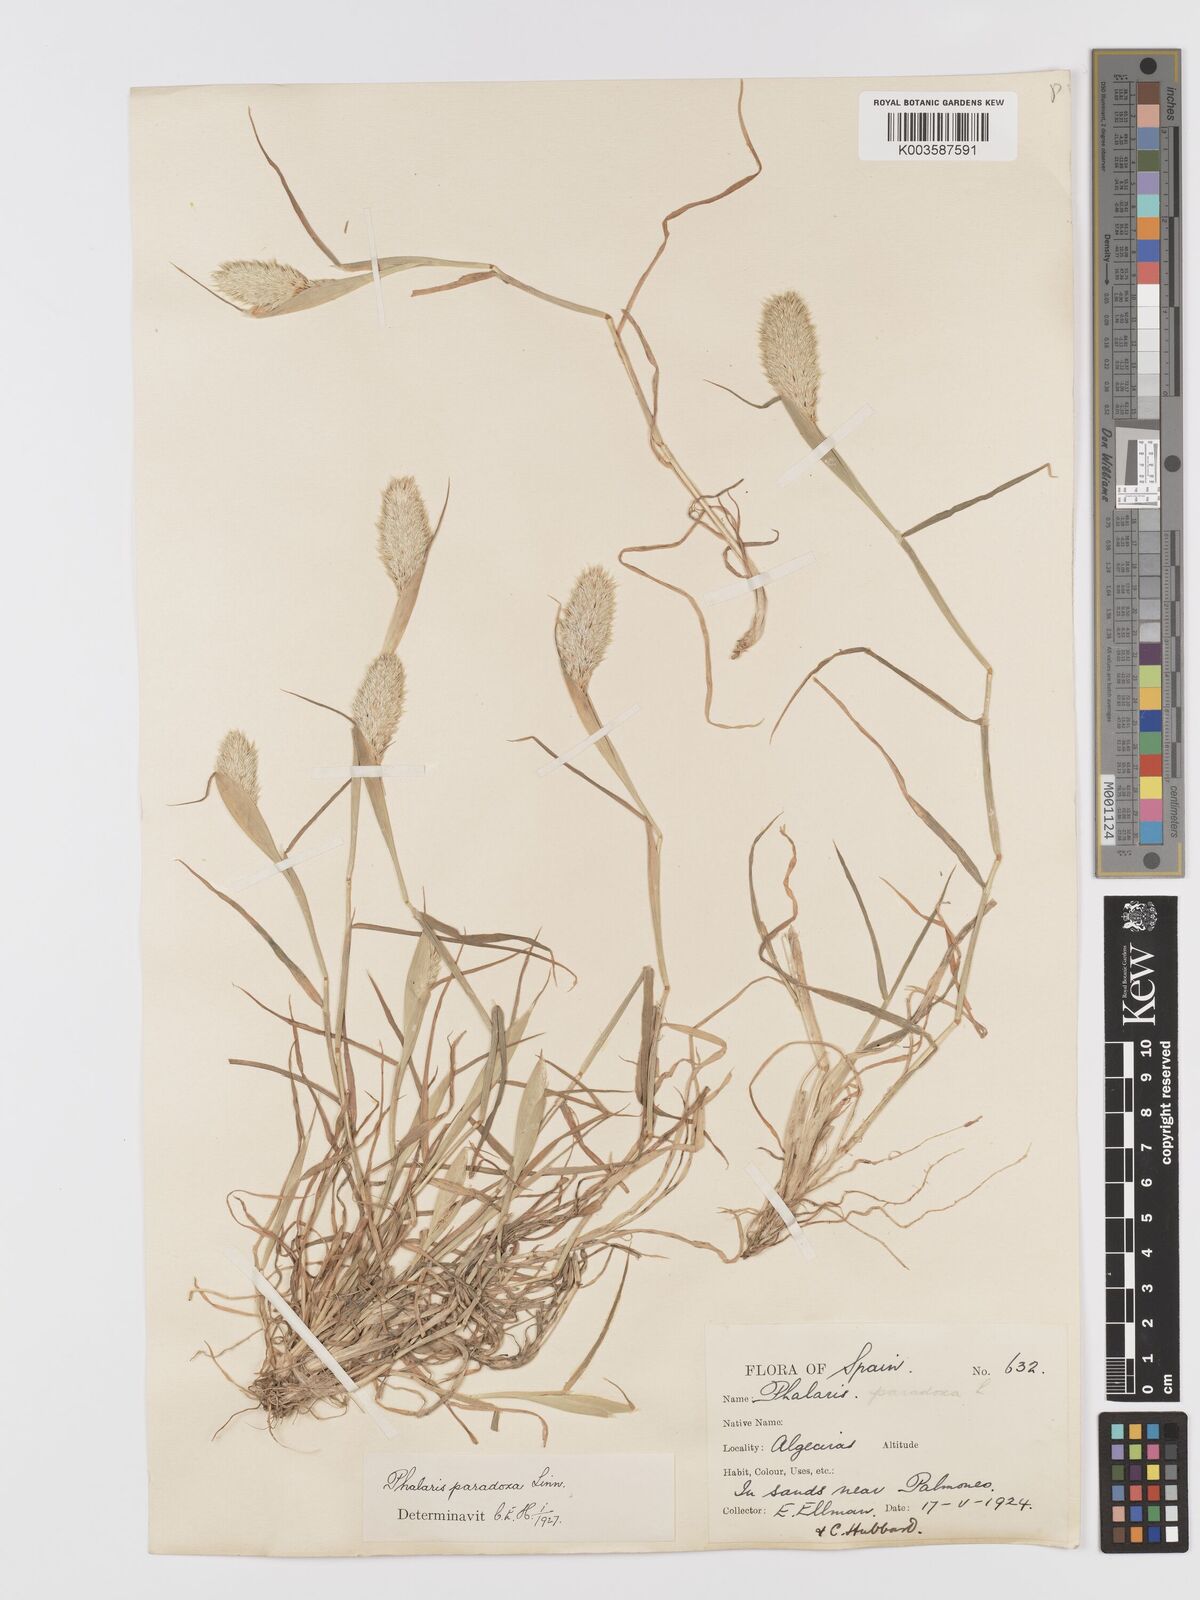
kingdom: Plantae
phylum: Tracheophyta
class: Liliopsida
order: Poales
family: Poaceae
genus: Phalaris
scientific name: Phalaris paradoxa
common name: Awned canary-grass
